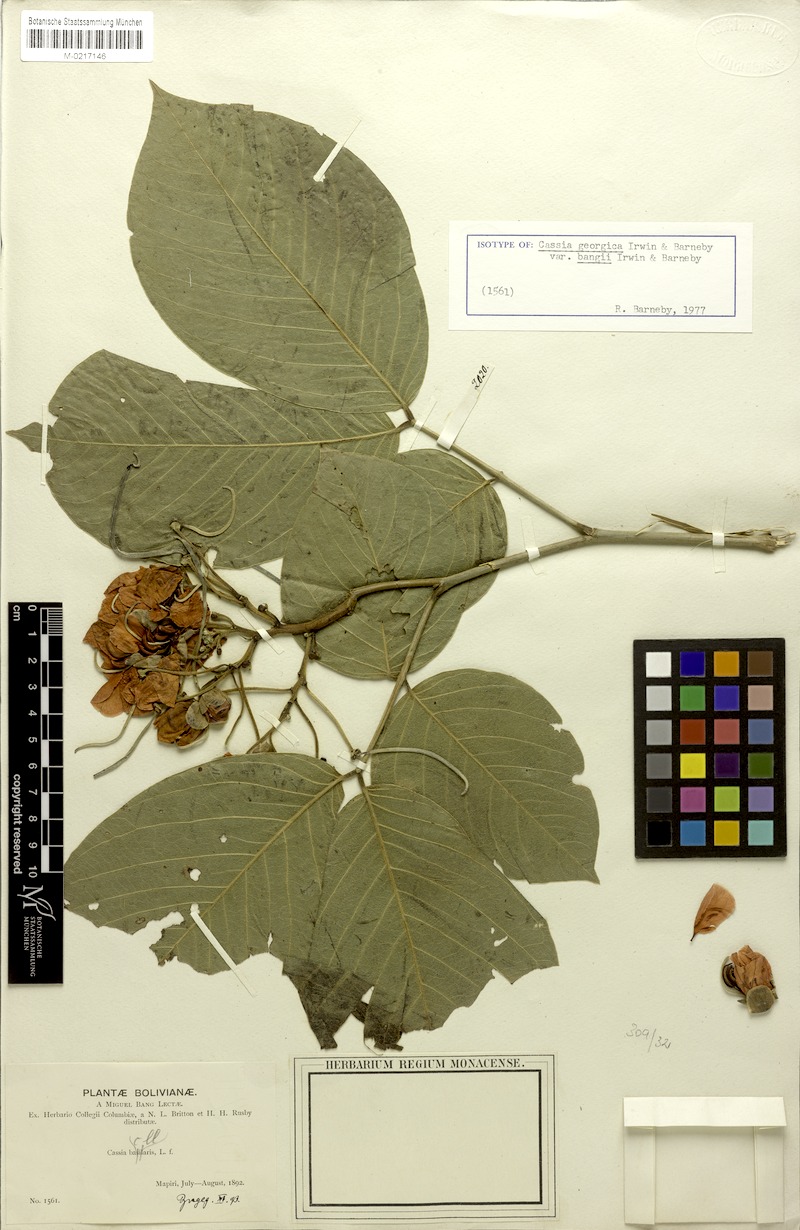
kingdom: Plantae
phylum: Tracheophyta
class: Magnoliopsida
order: Fabales
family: Fabaceae
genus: Senna
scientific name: Senna georgica
